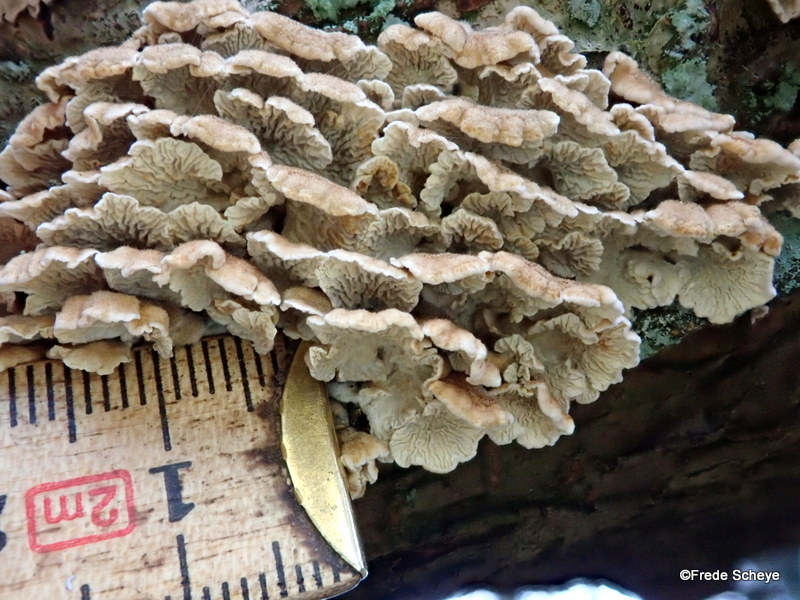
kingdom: Fungi
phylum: Basidiomycota
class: Agaricomycetes
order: Amylocorticiales
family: Amylocorticiaceae
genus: Plicaturopsis
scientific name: Plicaturopsis crispa
